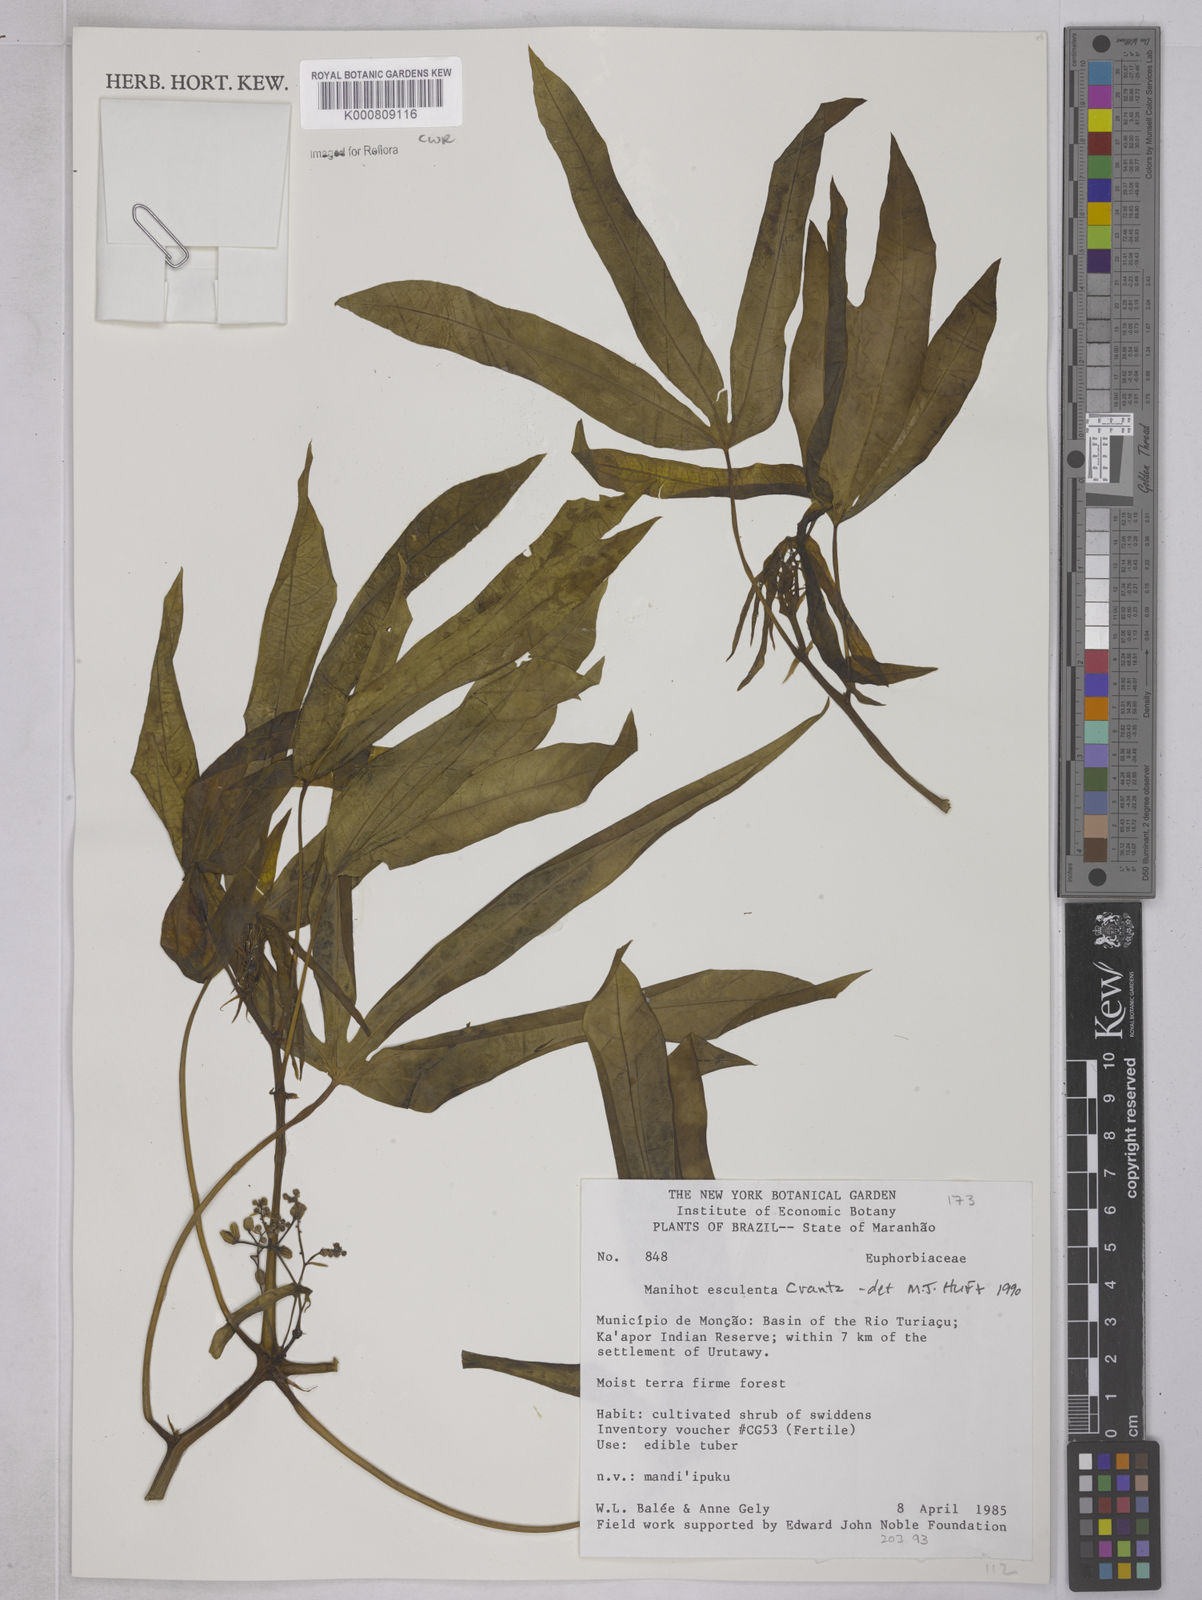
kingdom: Plantae
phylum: Tracheophyta
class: Magnoliopsida
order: Malpighiales
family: Euphorbiaceae
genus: Manihot
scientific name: Manihot esculenta
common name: Cassava
